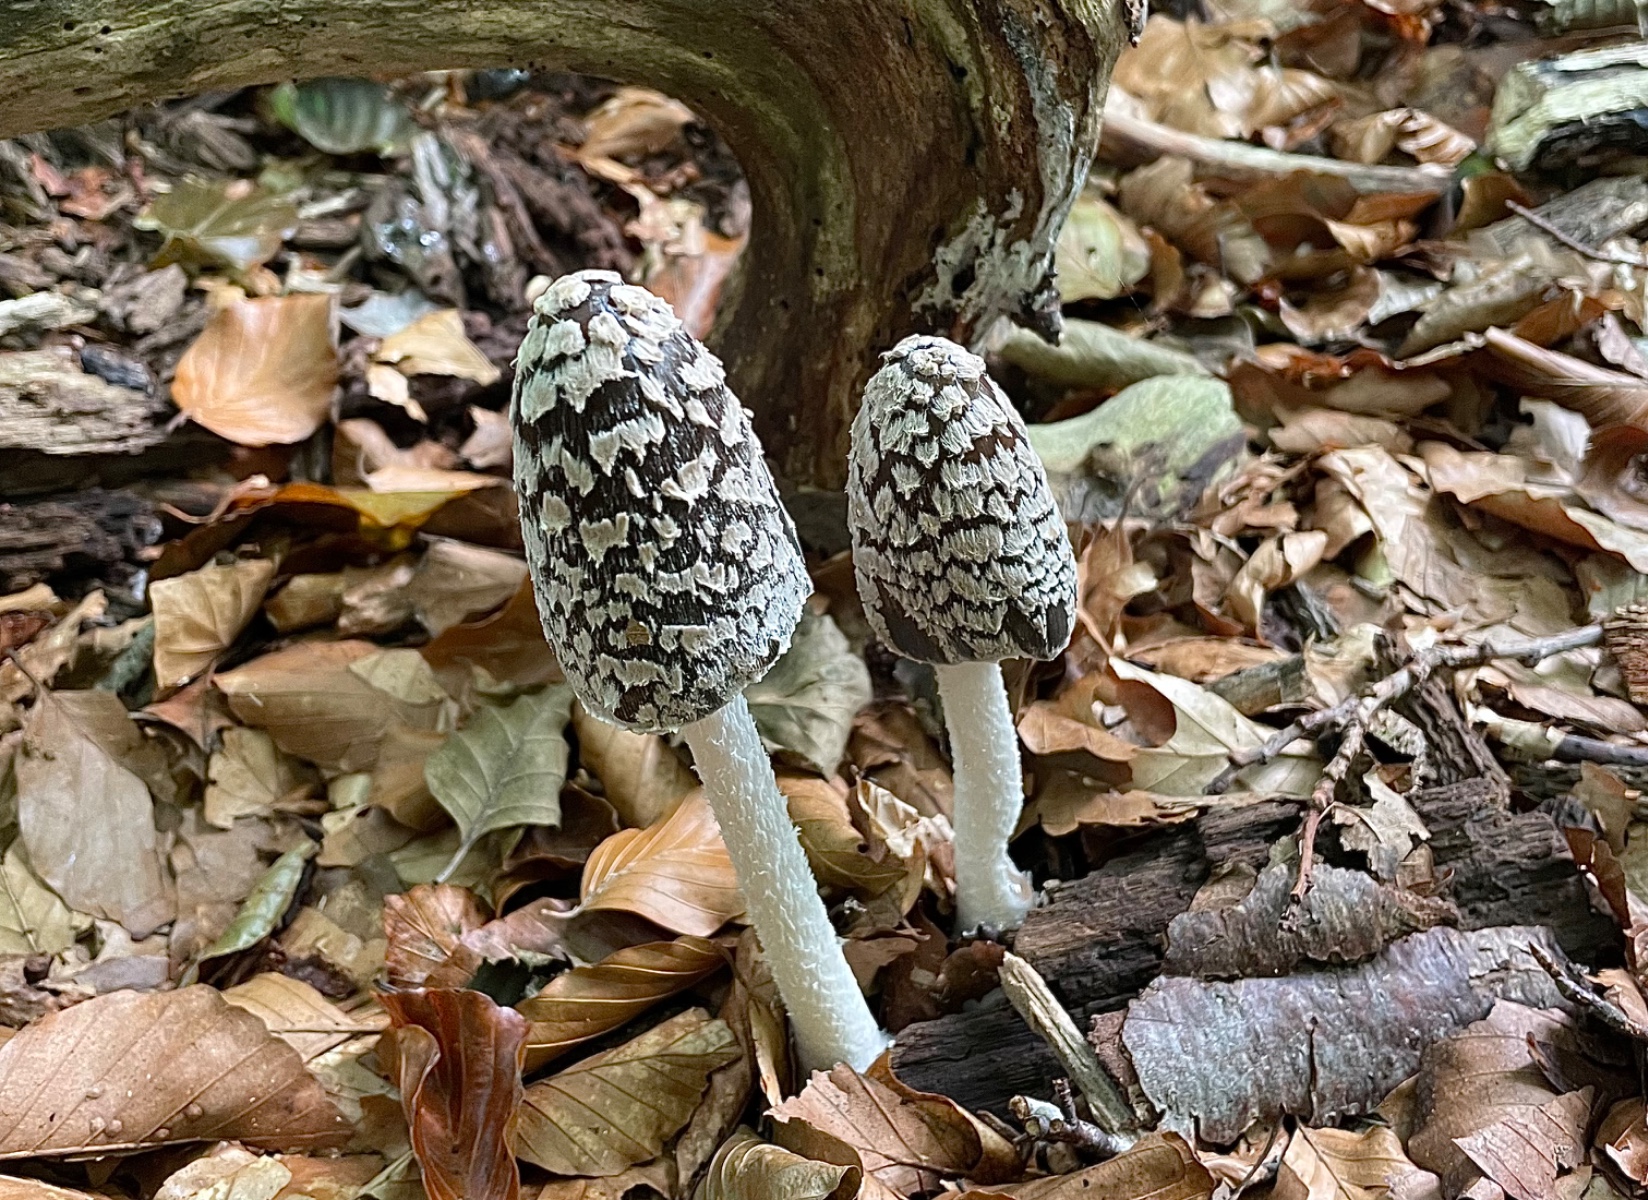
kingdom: Fungi
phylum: Basidiomycota
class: Agaricomycetes
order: Agaricales
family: Psathyrellaceae
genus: Coprinopsis
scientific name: Coprinopsis picacea
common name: skade-blækhat
